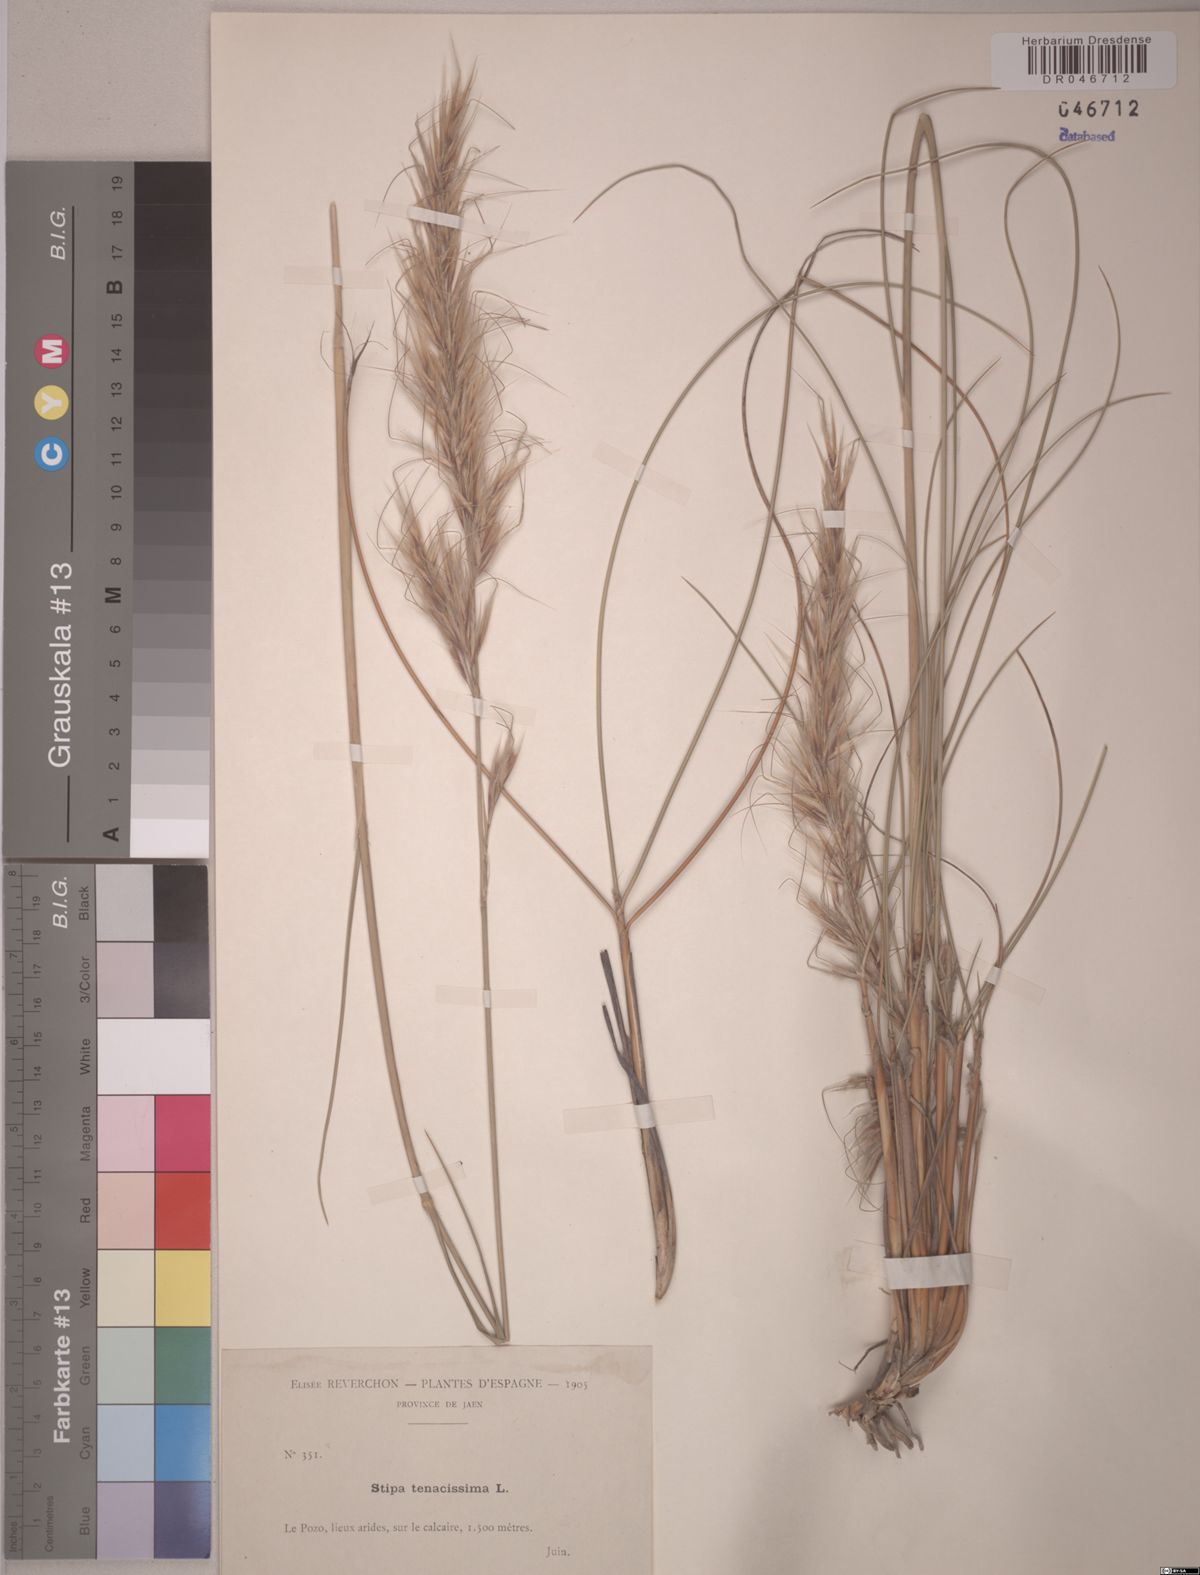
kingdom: Plantae
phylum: Tracheophyta
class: Liliopsida
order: Poales
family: Poaceae
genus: Macrochloa
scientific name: Macrochloa tenacissima
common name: Alfa grass
